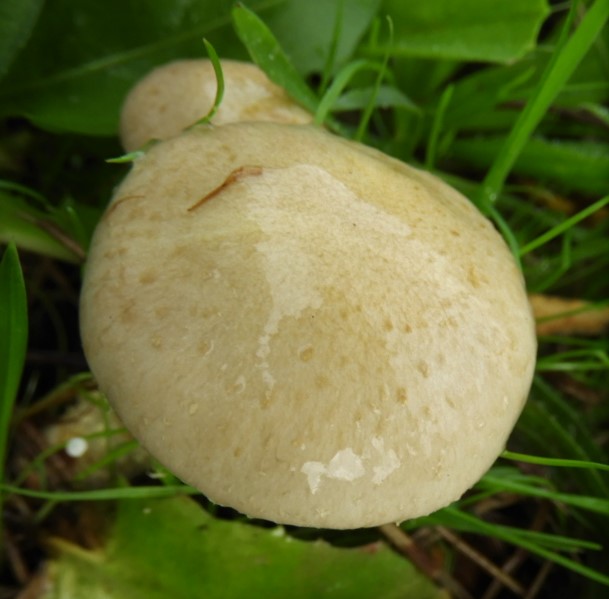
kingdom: Fungi
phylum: Basidiomycota
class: Agaricomycetes
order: Agaricales
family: Strophariaceae
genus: Pholiota
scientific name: Pholiota gummosa
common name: grøngul skælhat
